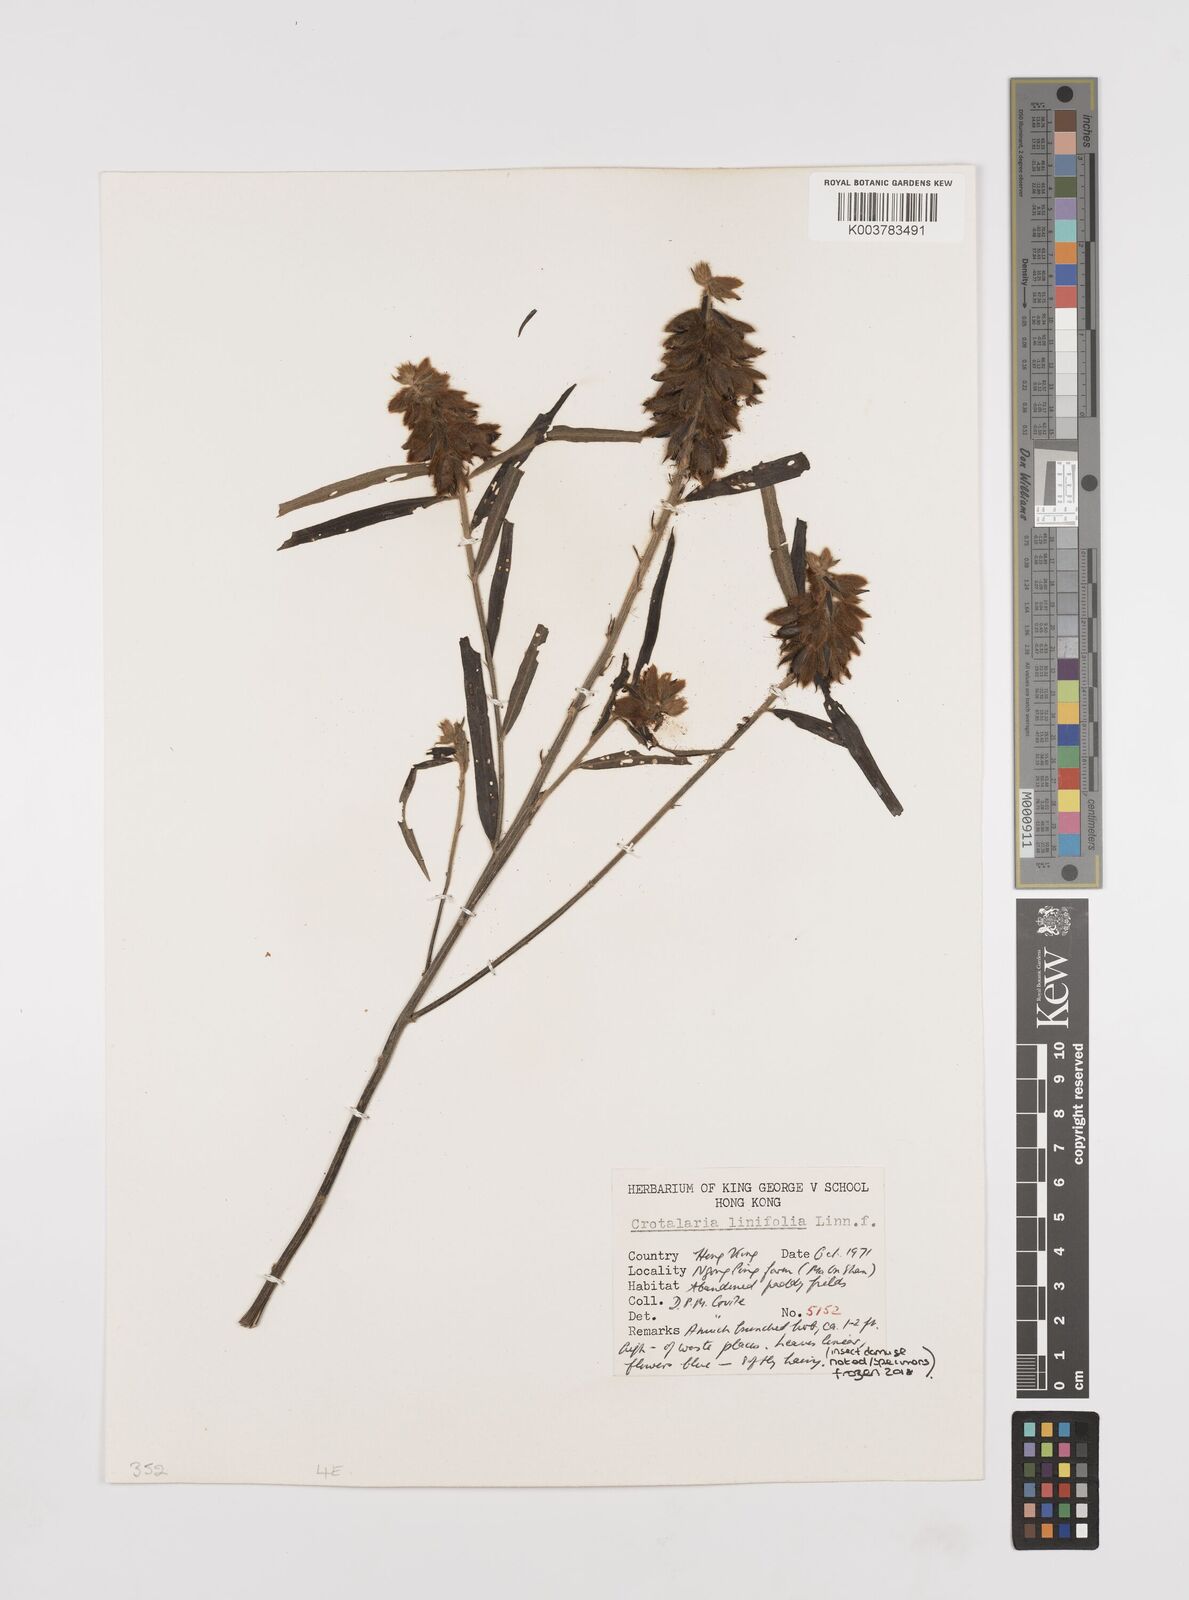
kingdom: Plantae
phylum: Tracheophyta
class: Magnoliopsida
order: Fabales
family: Fabaceae
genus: Crotalaria
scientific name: Crotalaria linifolia
